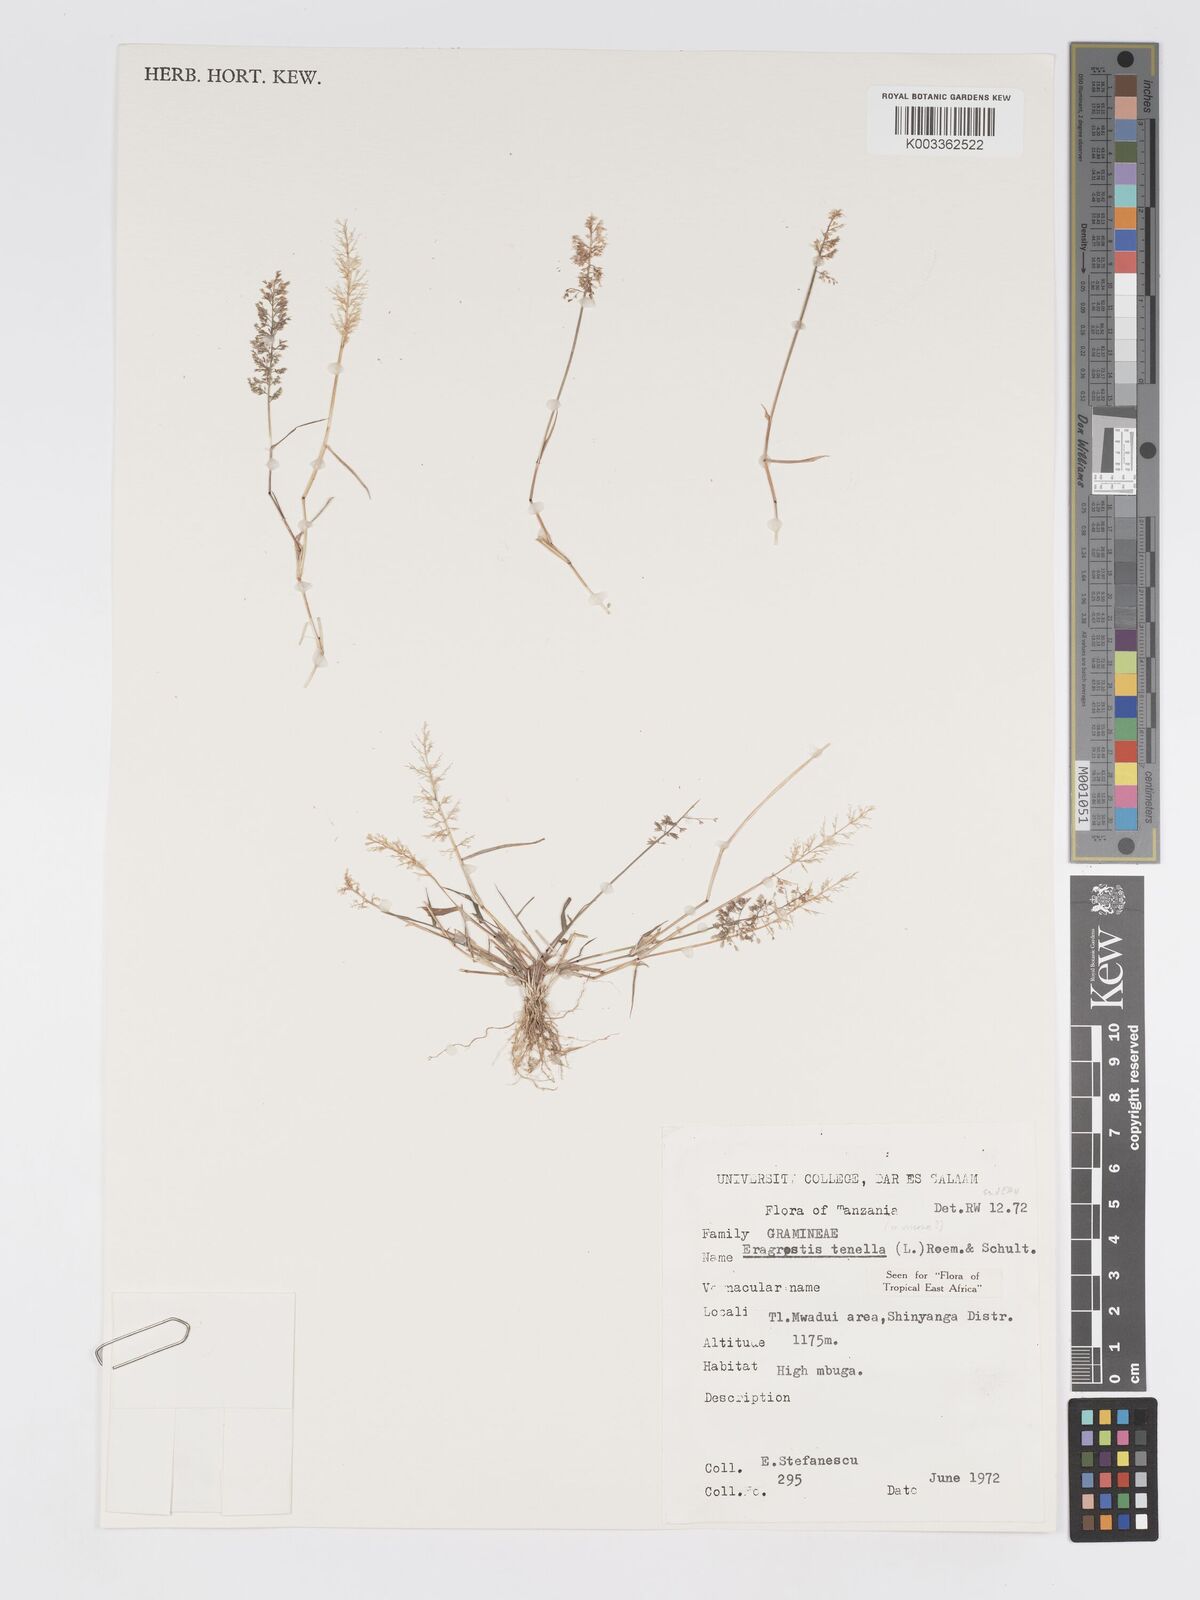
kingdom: Plantae
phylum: Tracheophyta
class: Liliopsida
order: Poales
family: Poaceae
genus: Eragrostis
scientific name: Eragrostis tenella
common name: Japanese lovegrass
